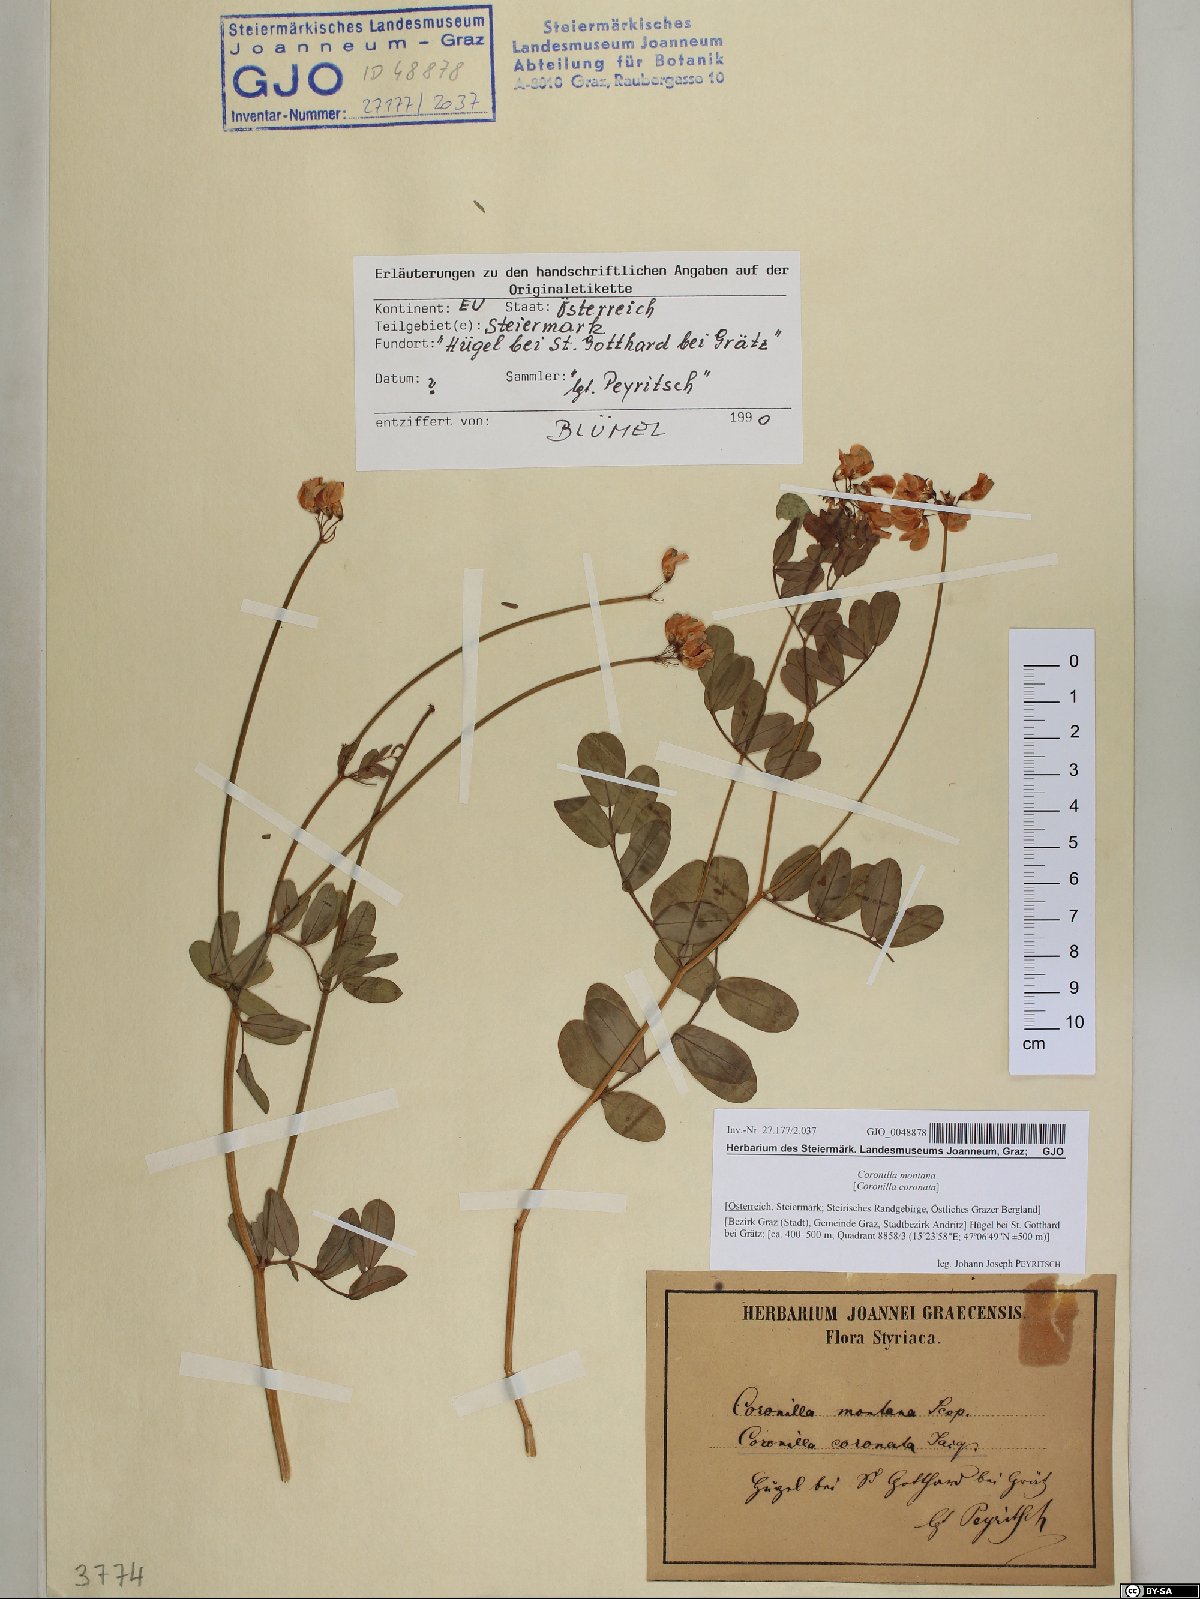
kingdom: Plantae
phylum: Tracheophyta
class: Magnoliopsida
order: Fabales
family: Fabaceae
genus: Coronilla
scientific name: Coronilla coronata
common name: Scorpion-vetch
